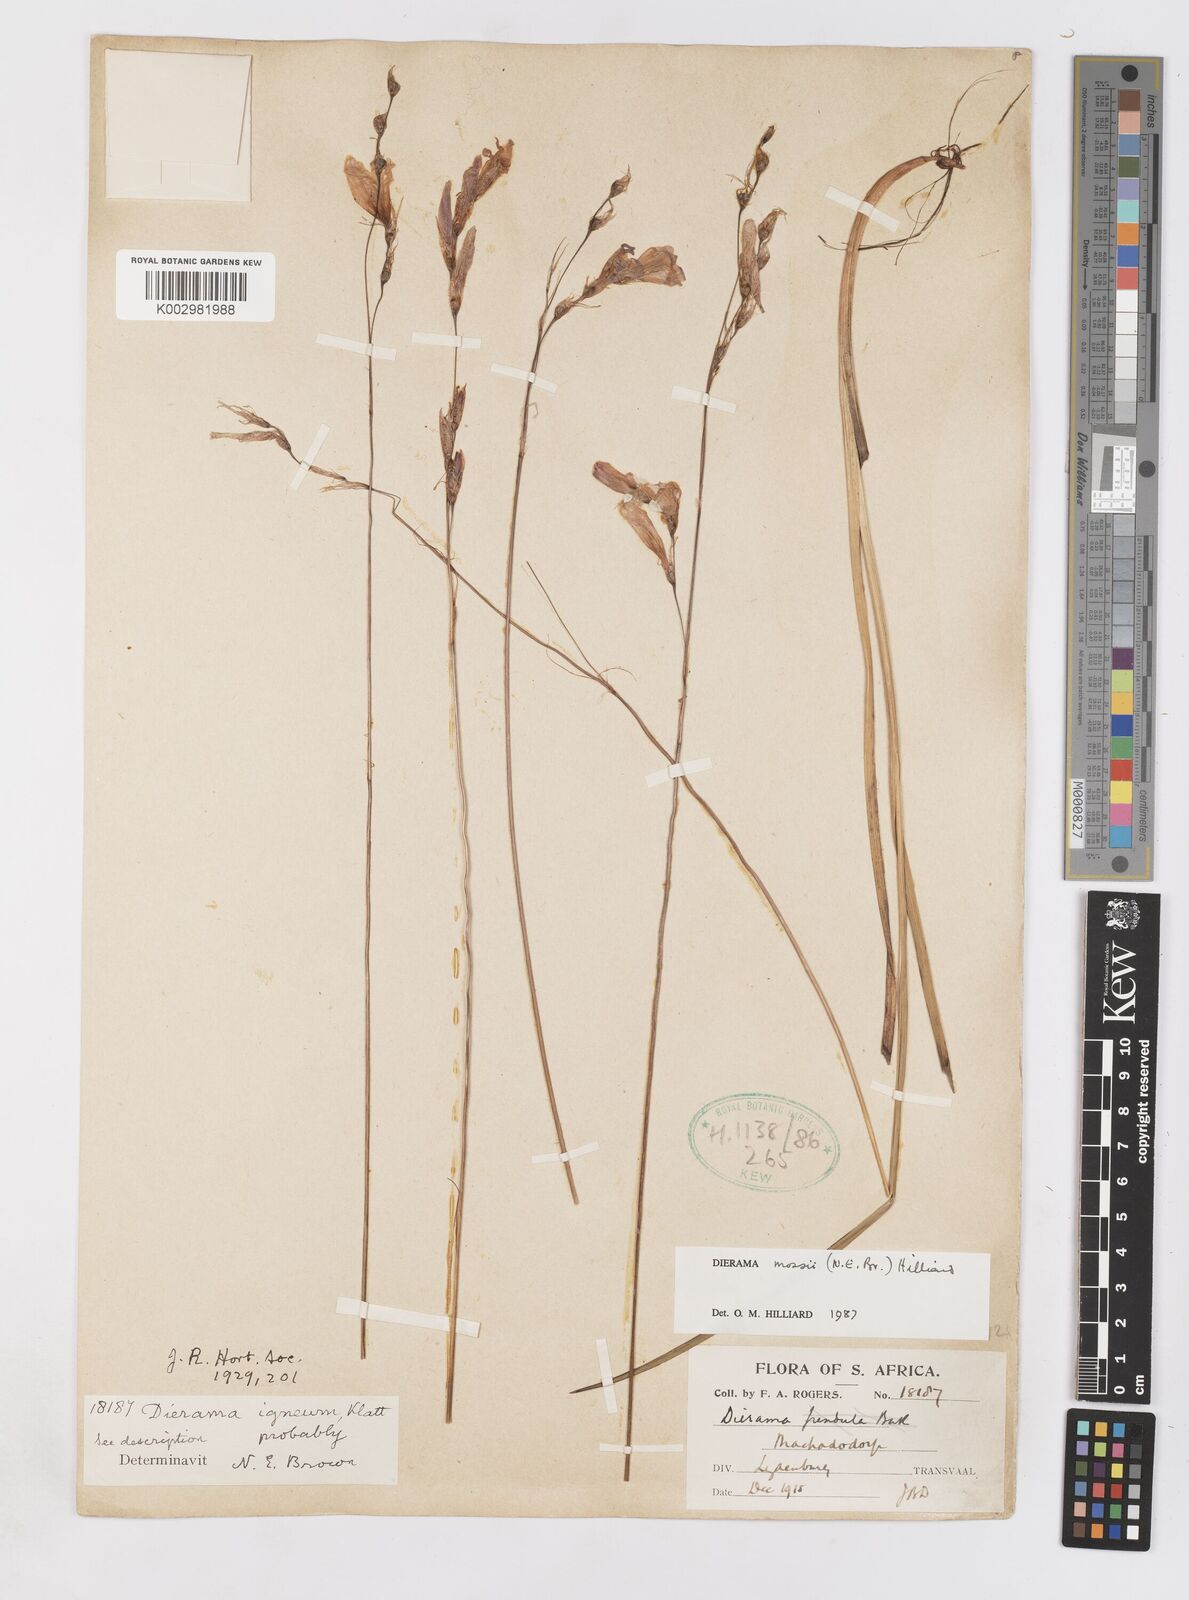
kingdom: Plantae
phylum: Tracheophyta
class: Liliopsida
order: Asparagales
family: Iridaceae
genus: Dierama
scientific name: Dierama mossii
